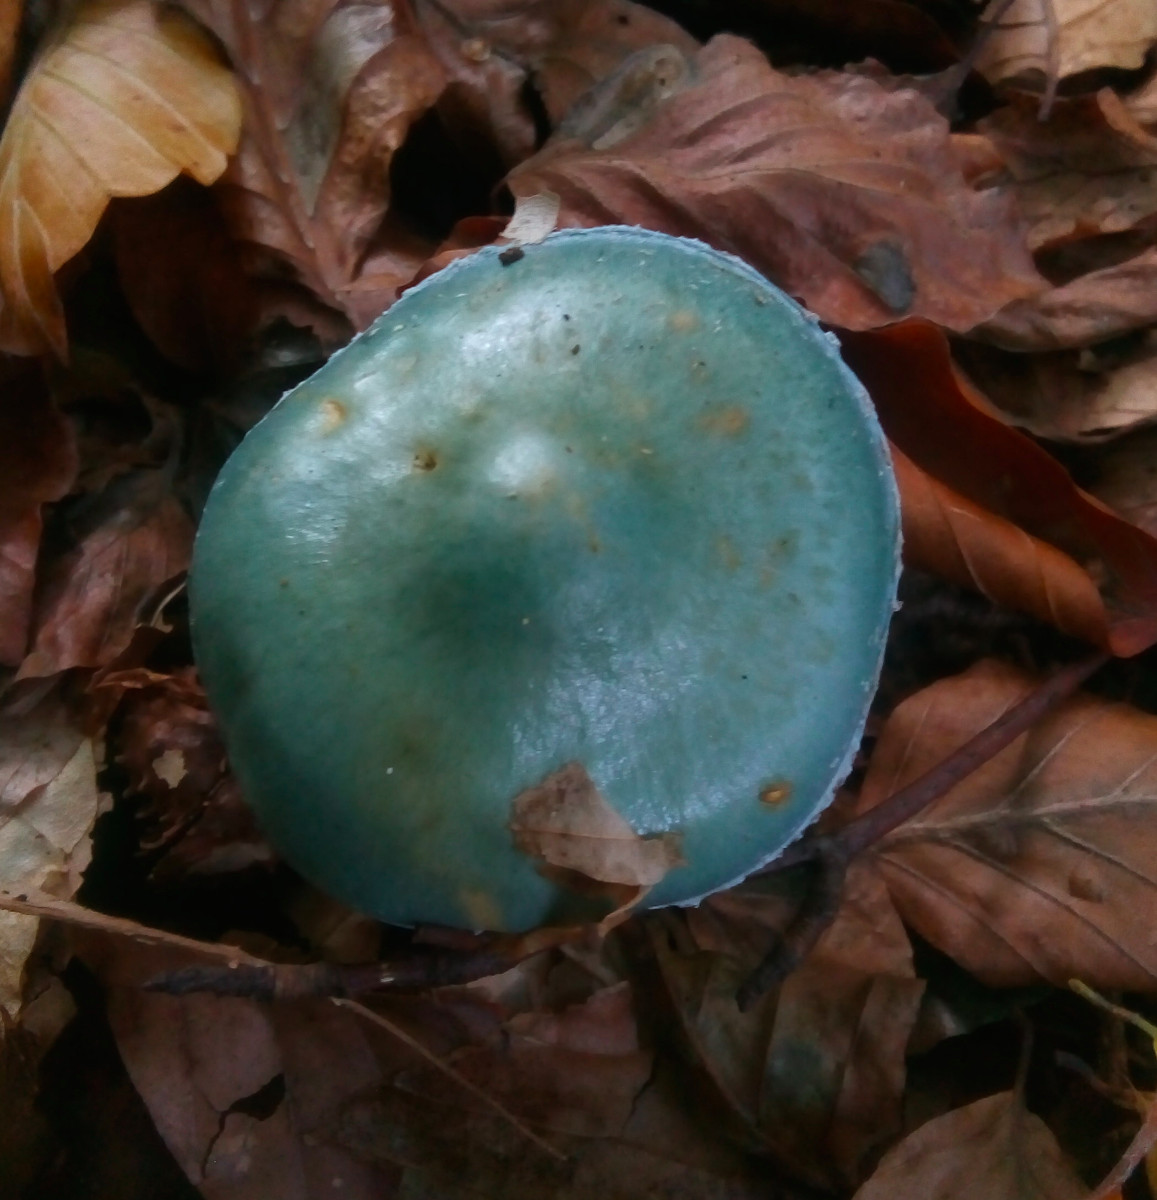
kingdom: Fungi
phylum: Basidiomycota
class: Agaricomycetes
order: Agaricales
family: Strophariaceae
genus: Stropharia
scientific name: Stropharia cyanea
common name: blågrøn bredblad
